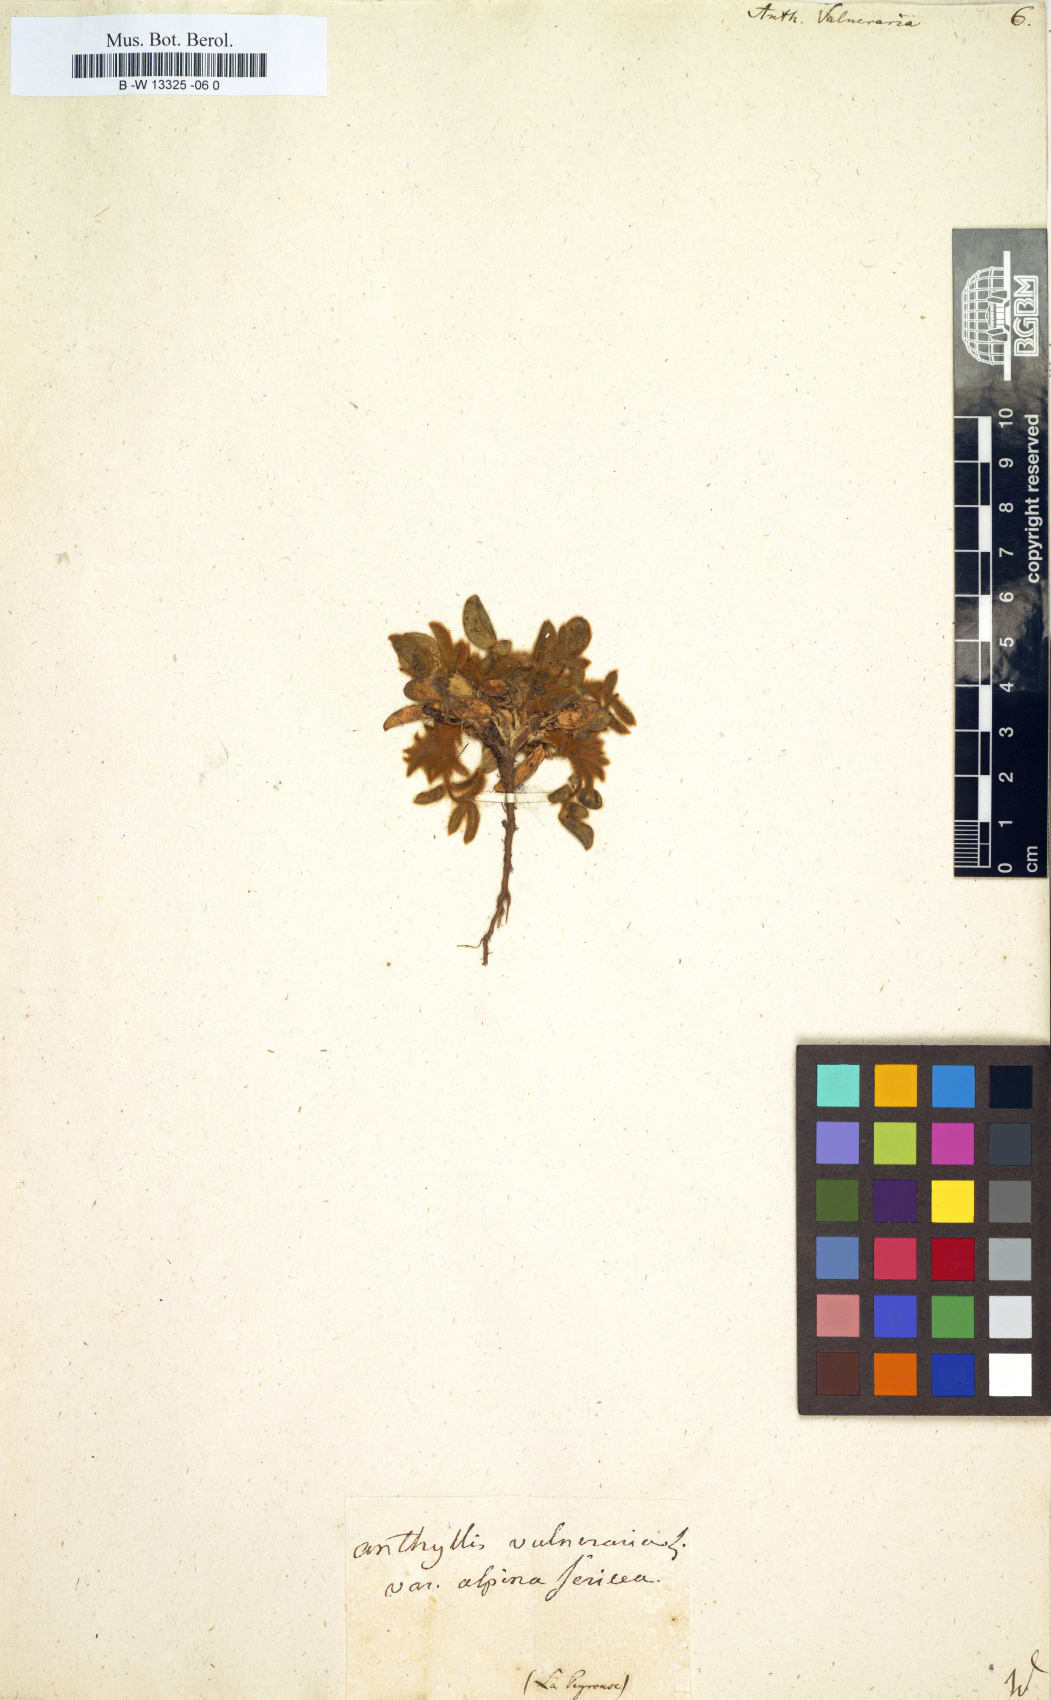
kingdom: Plantae
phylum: Tracheophyta
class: Magnoliopsida
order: Fabales
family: Fabaceae
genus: Anthyllis
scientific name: Anthyllis vulneraria
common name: Kidney vetch
